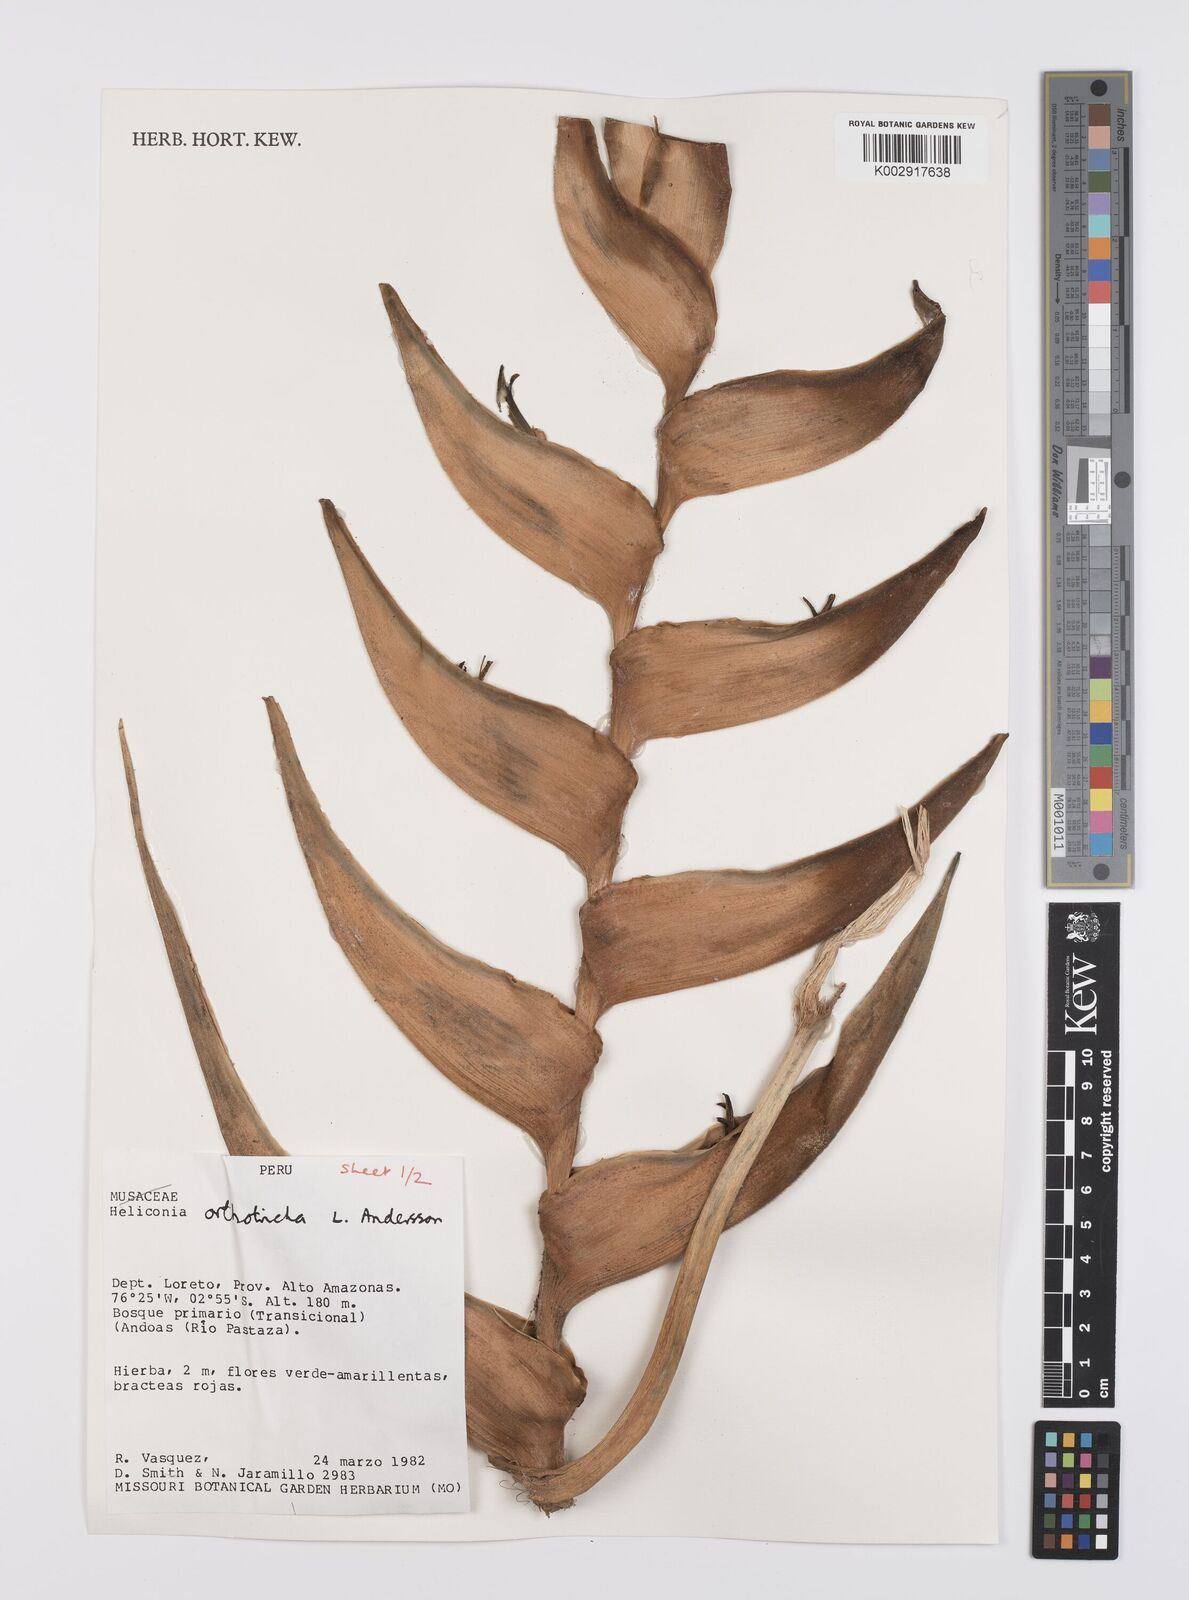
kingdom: Plantae
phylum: Tracheophyta
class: Liliopsida
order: Zingiberales
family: Heliconiaceae
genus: Heliconia
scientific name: Heliconia orthotricha
